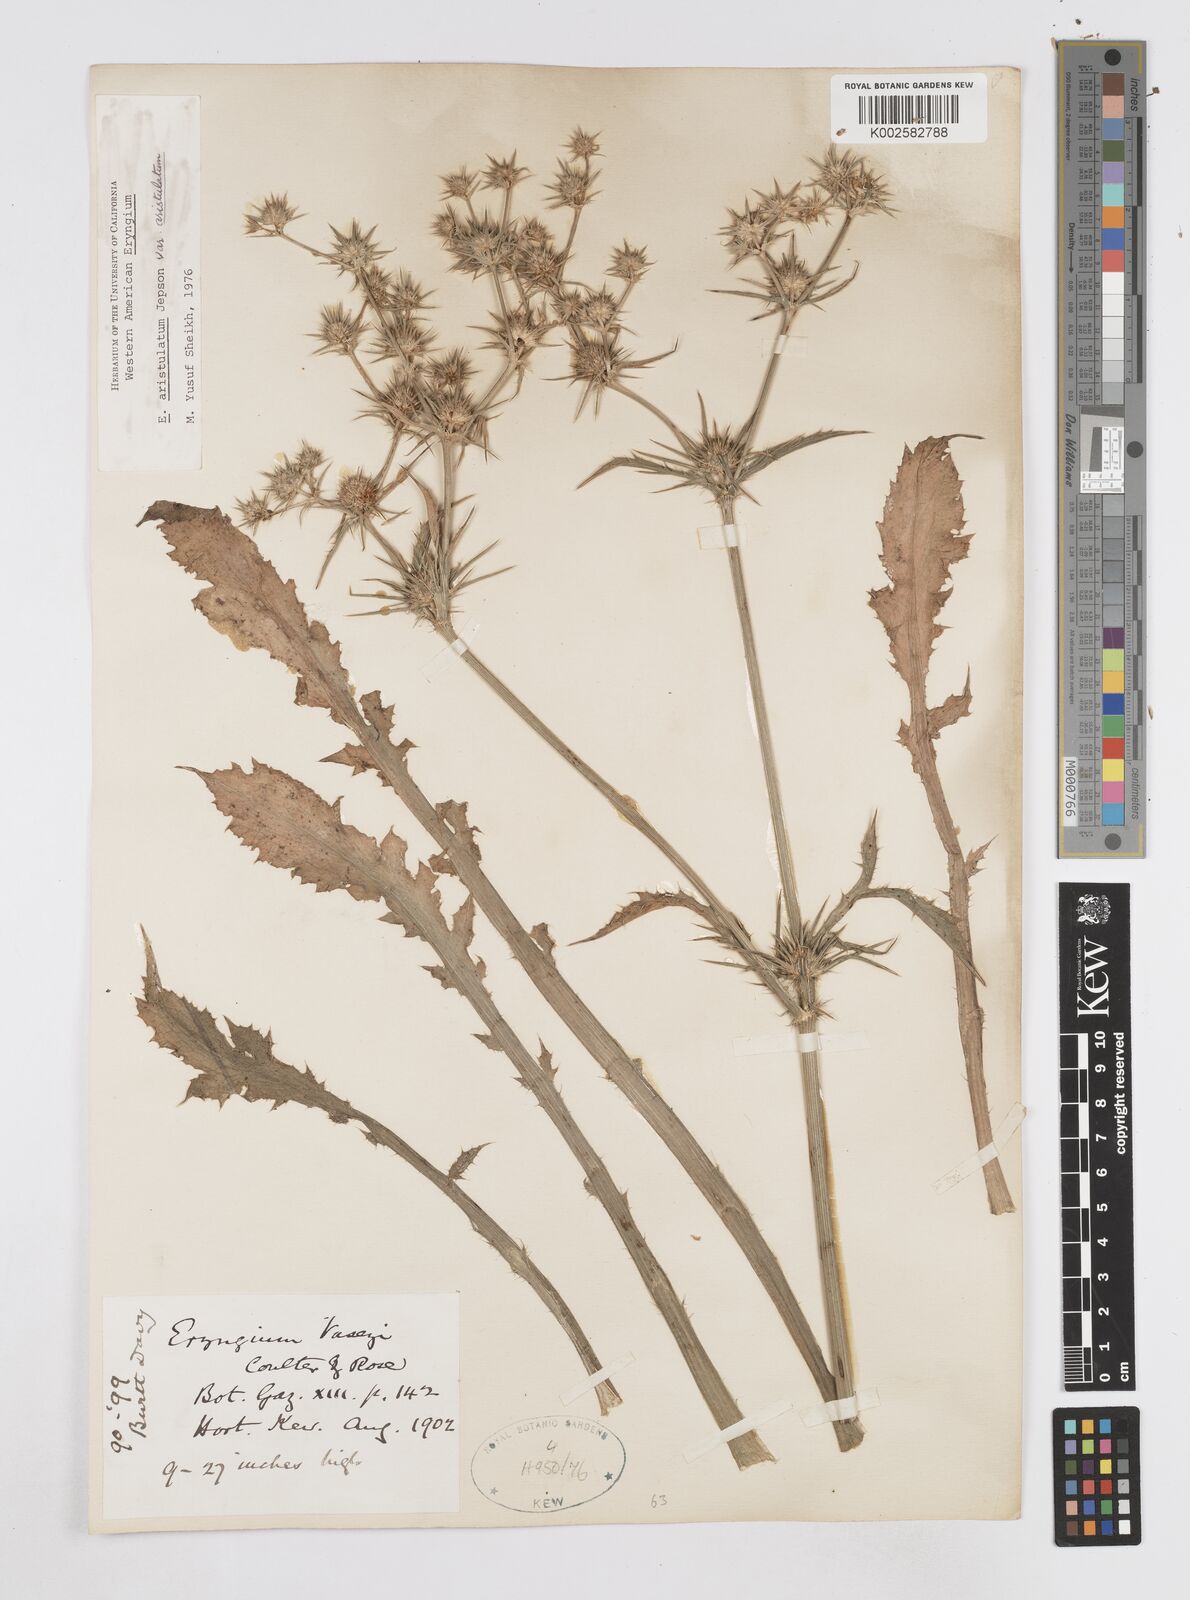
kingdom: Plantae
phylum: Tracheophyta
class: Magnoliopsida
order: Apiales
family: Apiaceae
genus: Eryngium
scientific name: Eryngium aristulatum
